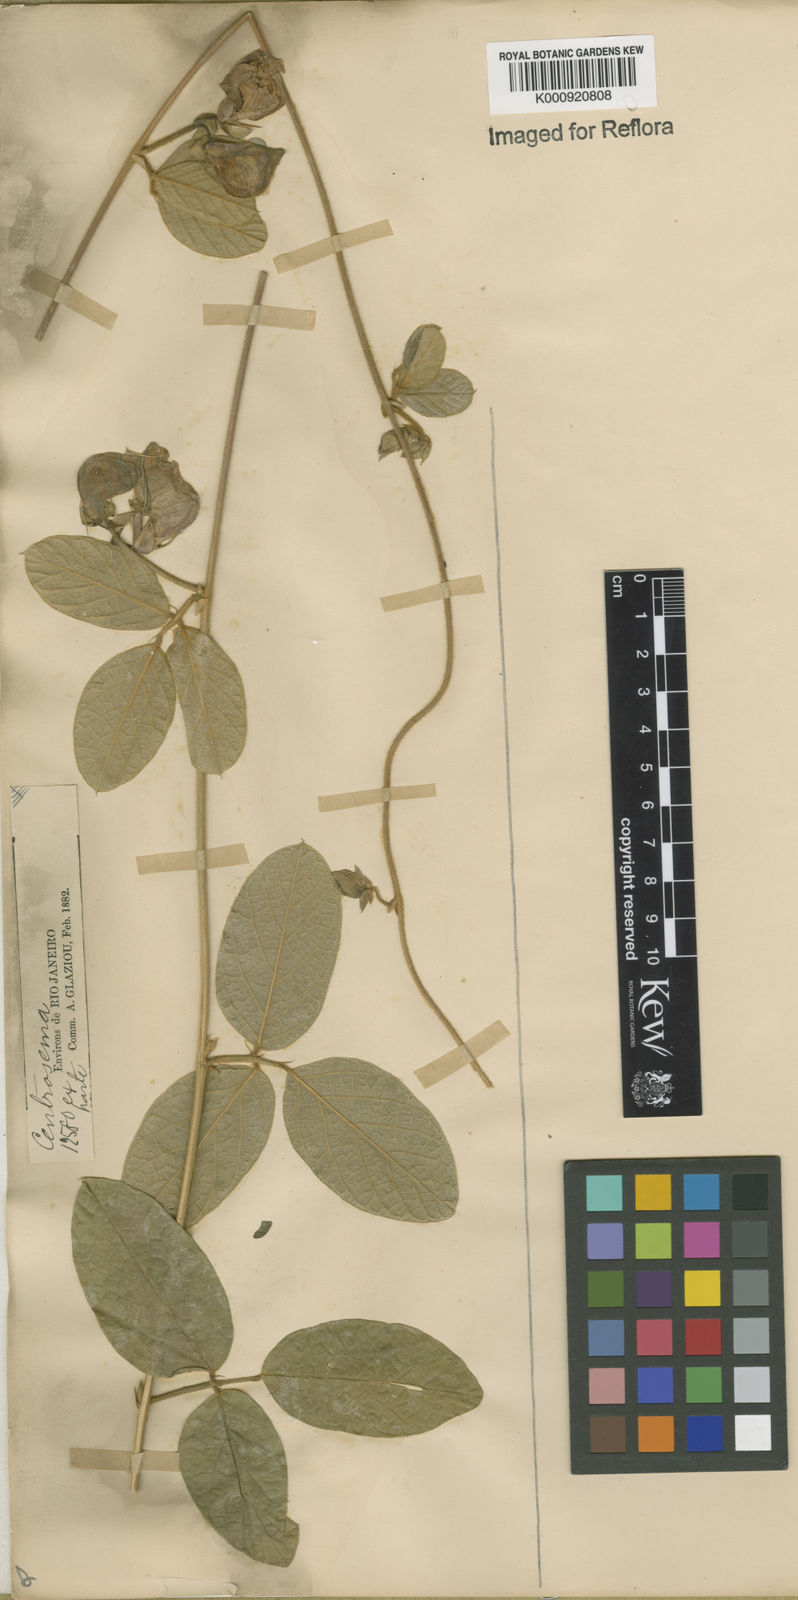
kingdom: Plantae
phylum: Tracheophyta
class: Magnoliopsida
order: Fabales
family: Fabaceae
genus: Centrosema
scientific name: Centrosema arenarium
